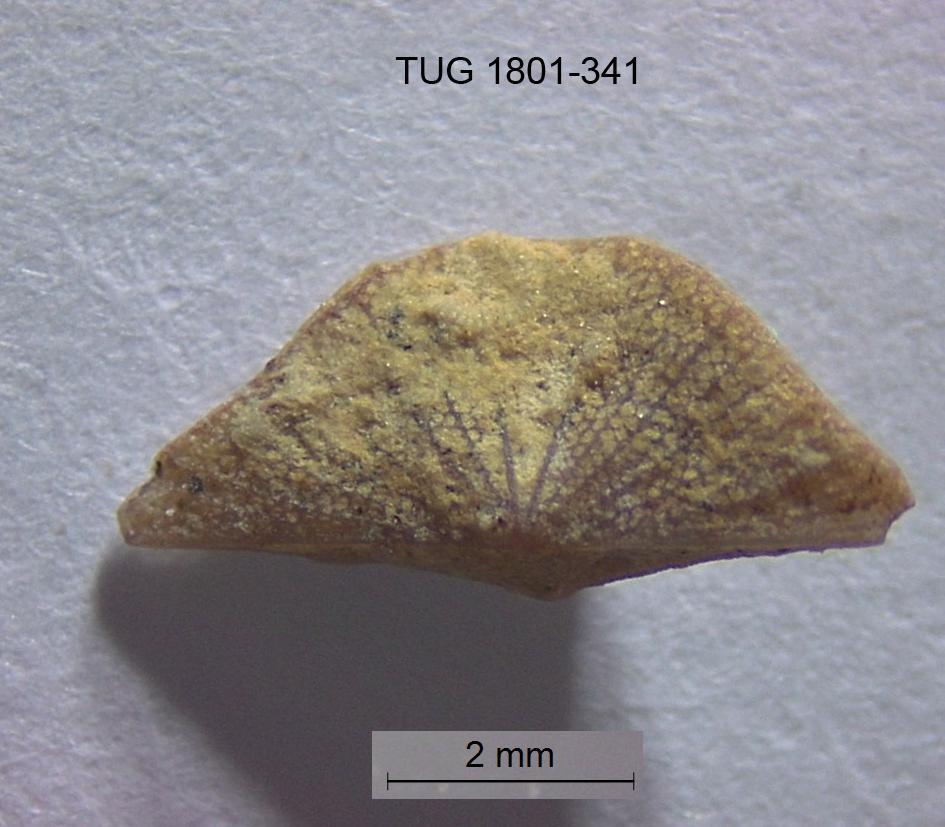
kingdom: Animalia
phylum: Brachiopoda
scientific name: Brachiopoda
